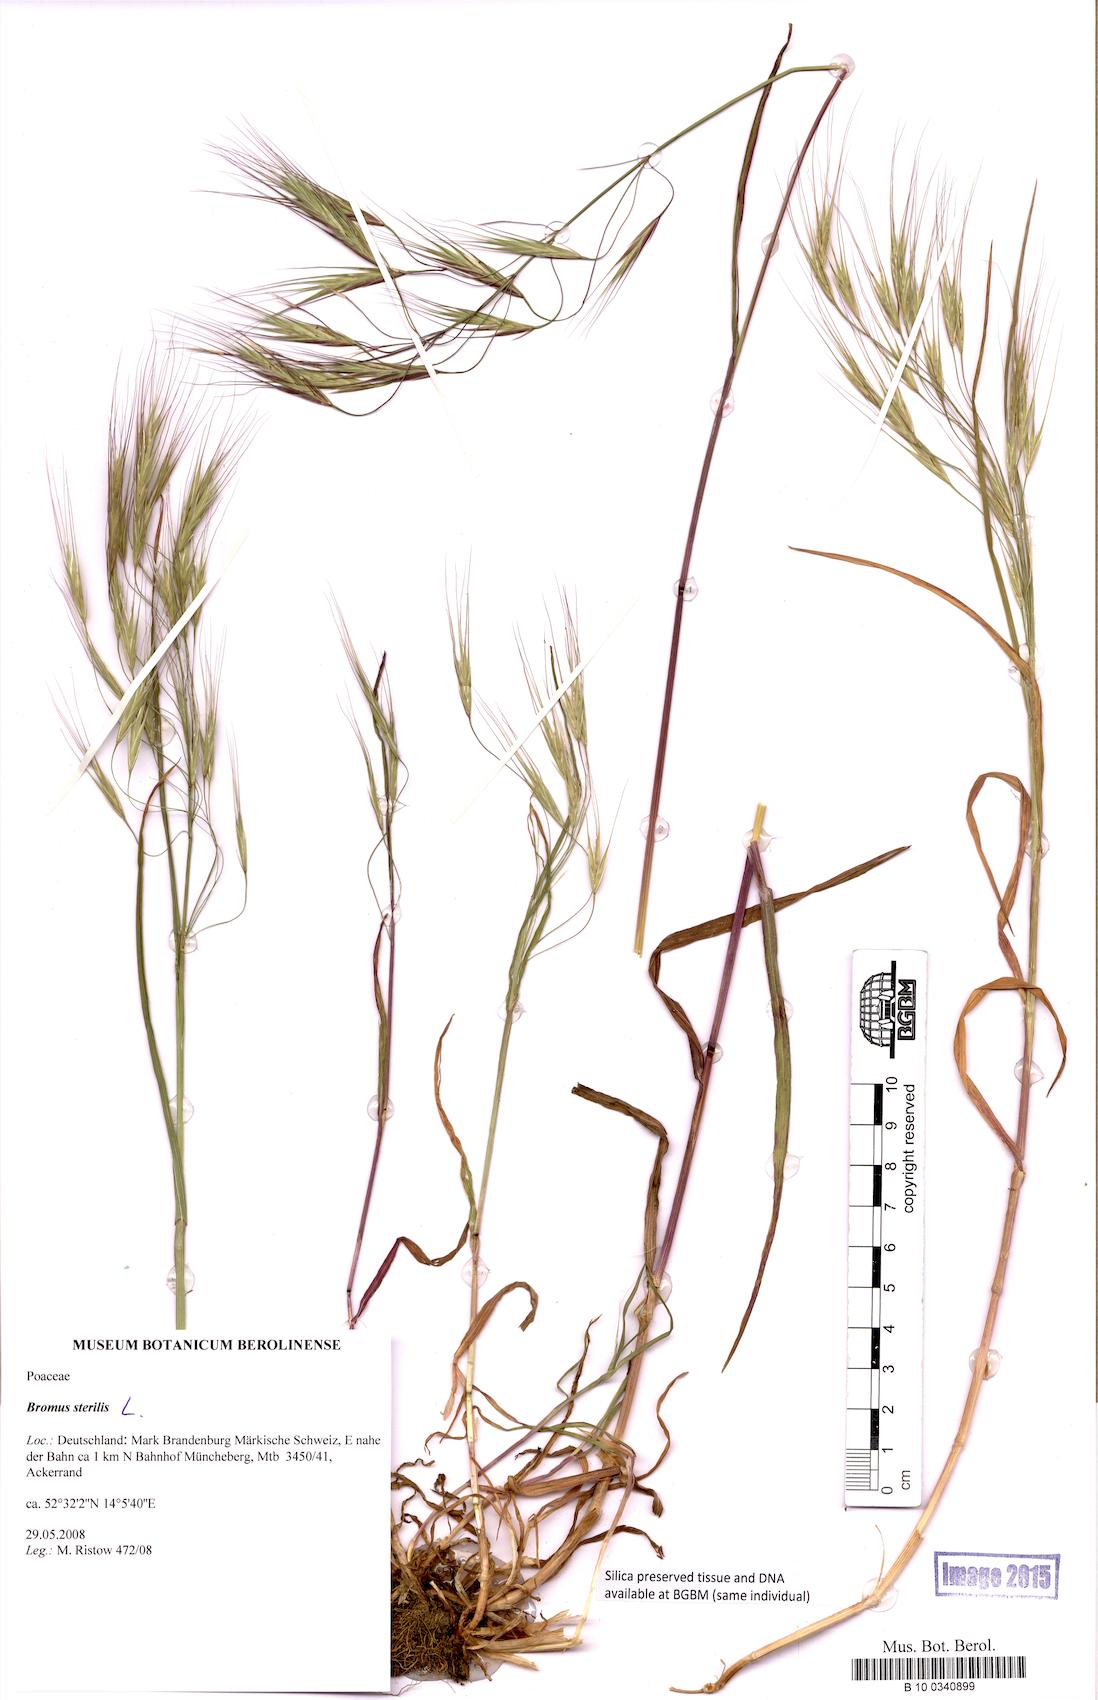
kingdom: Plantae
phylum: Tracheophyta
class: Liliopsida
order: Poales
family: Poaceae
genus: Bromus
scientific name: Bromus sterilis
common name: Poverty brome
